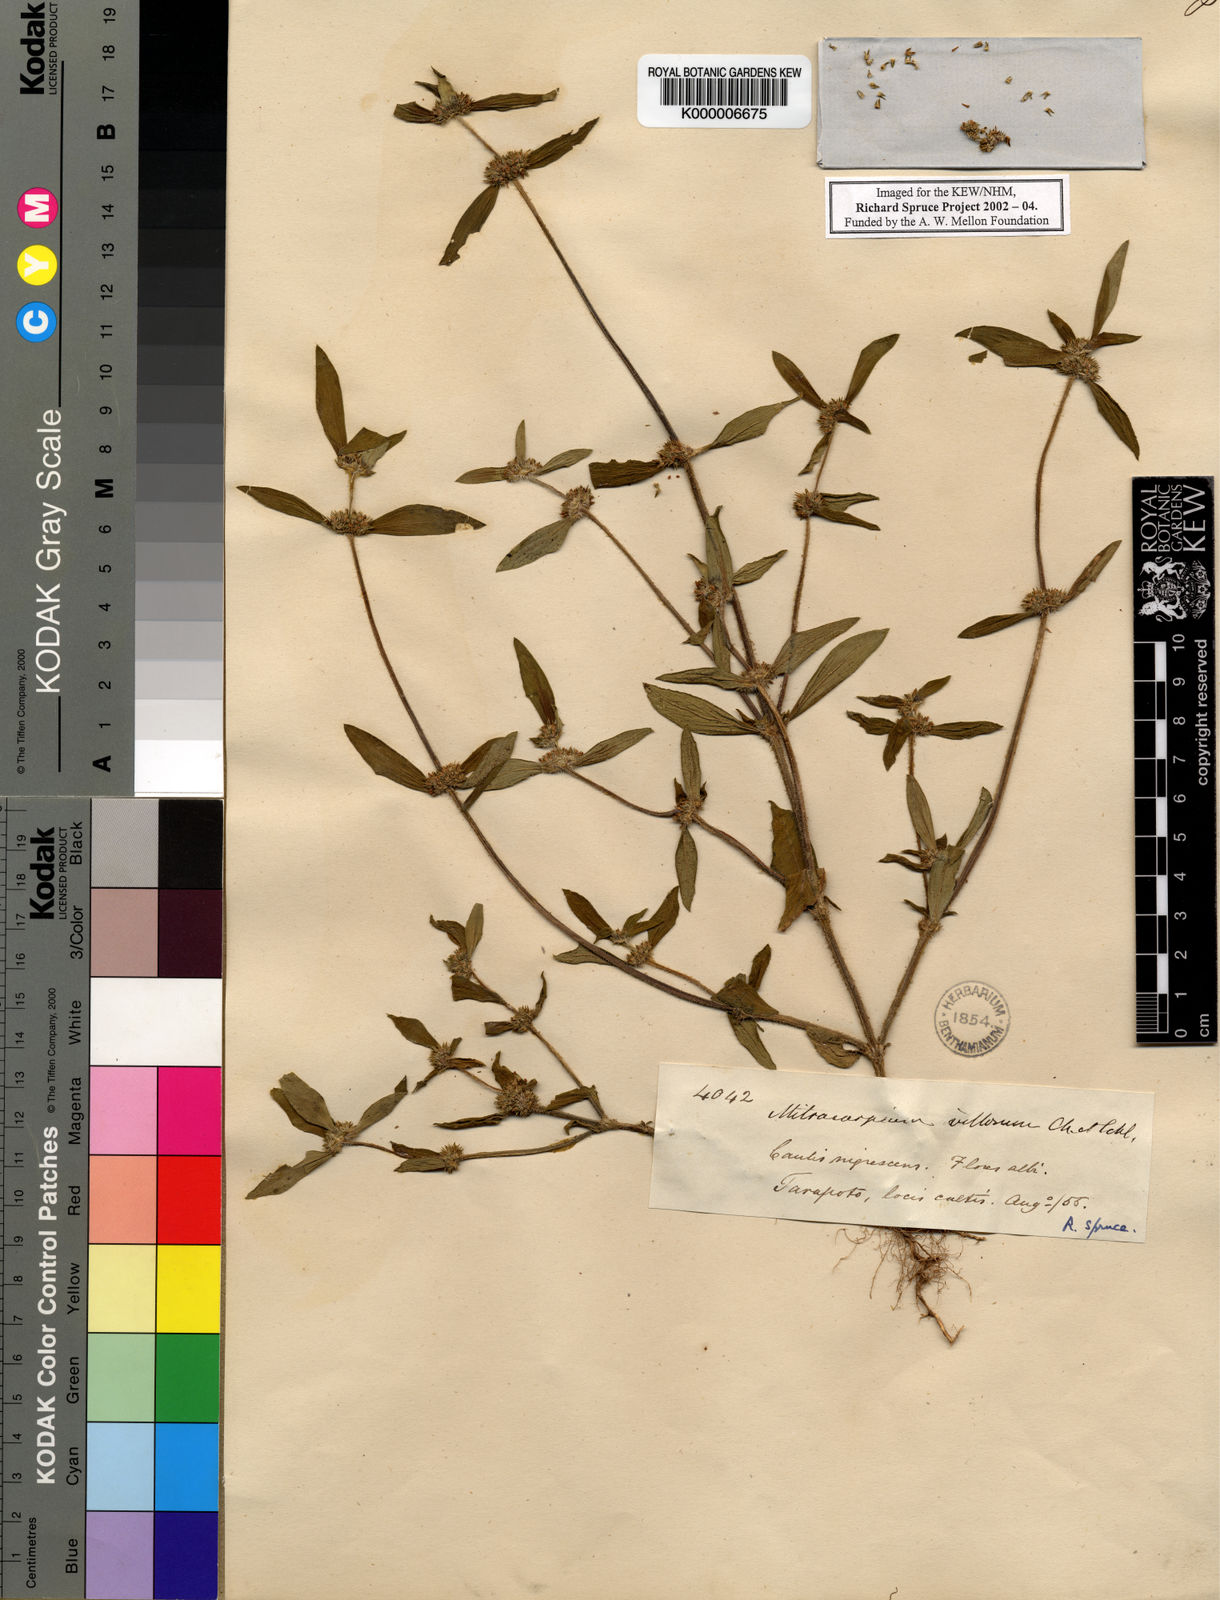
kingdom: Plantae
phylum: Tracheophyta
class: Magnoliopsida
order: Gentianales
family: Rubiaceae
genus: Mitracarpus
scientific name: Mitracarpus hirtus
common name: Tropical girdlepod
